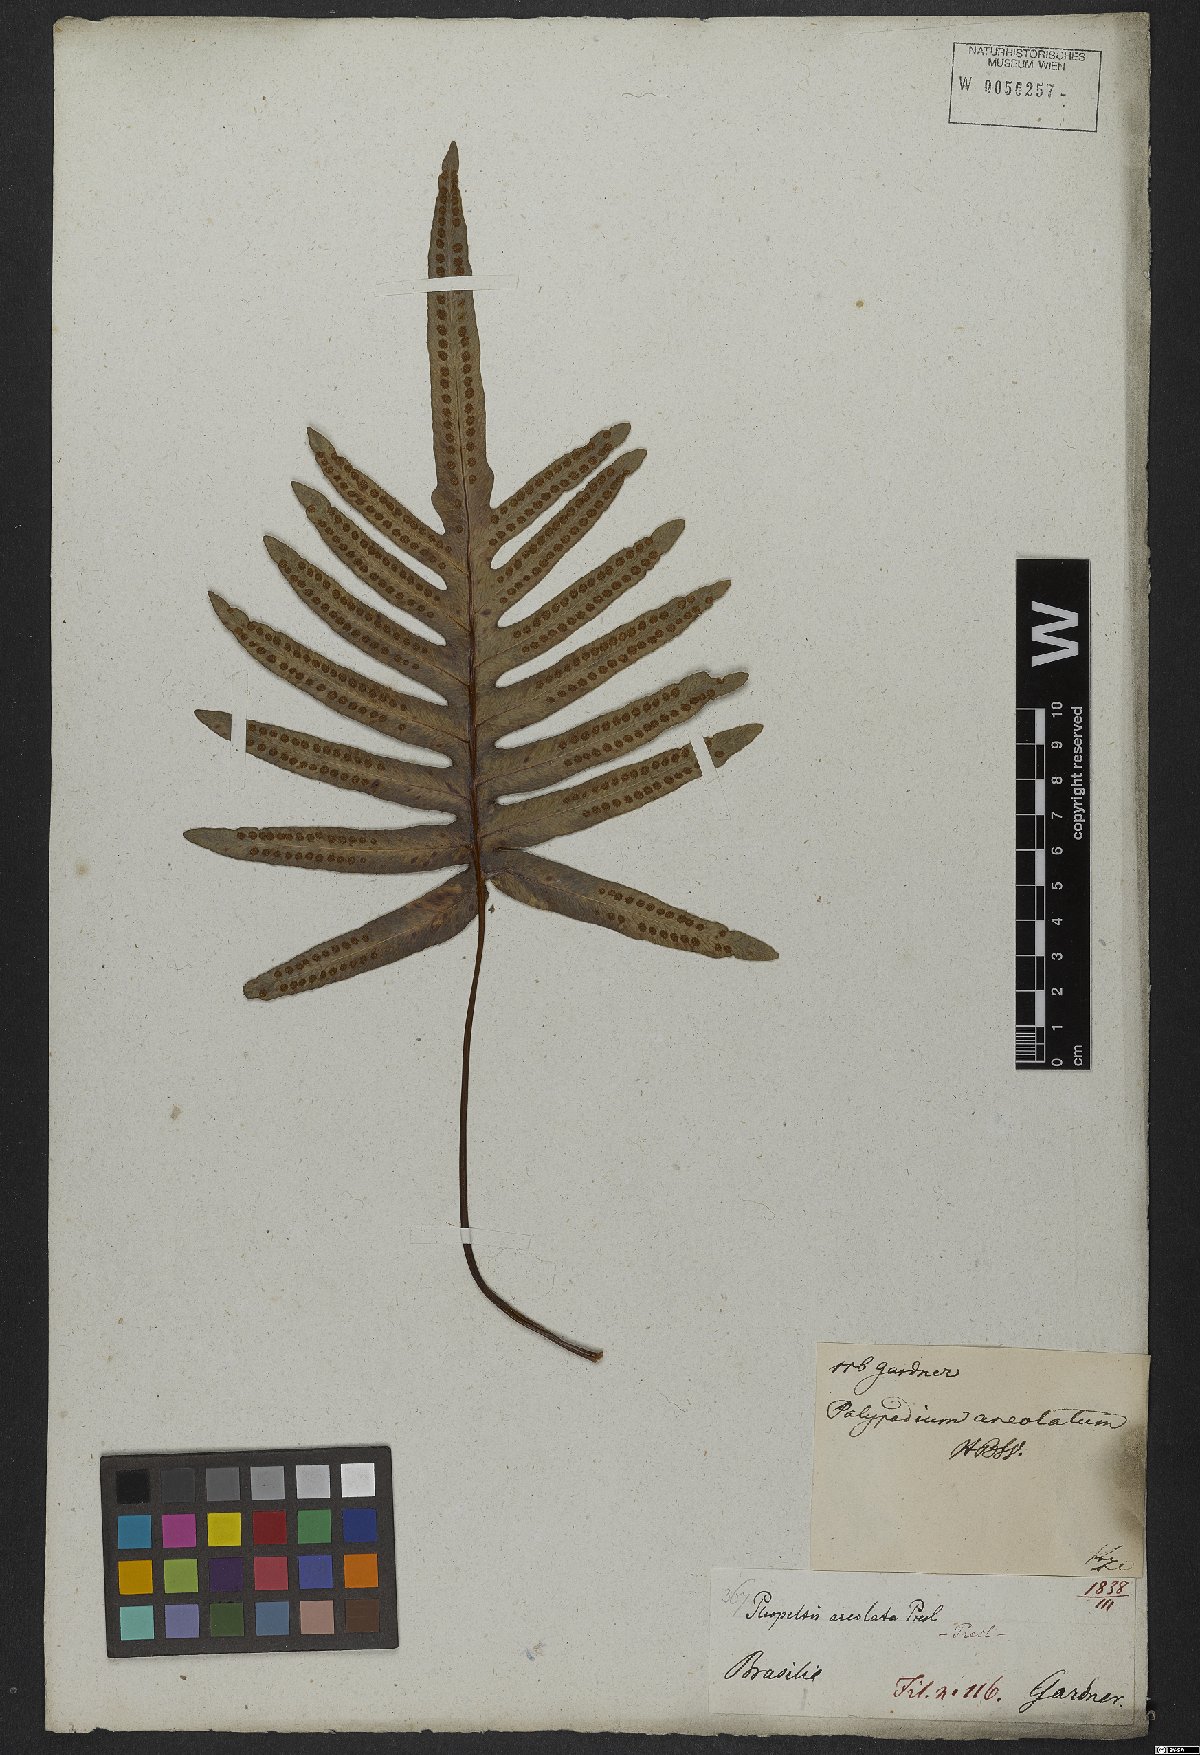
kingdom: Plantae
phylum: Tracheophyta
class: Polypodiopsida
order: Polypodiales
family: Polypodiaceae
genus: Phlebodium
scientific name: Phlebodium aureum
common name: Gold-foot fern
